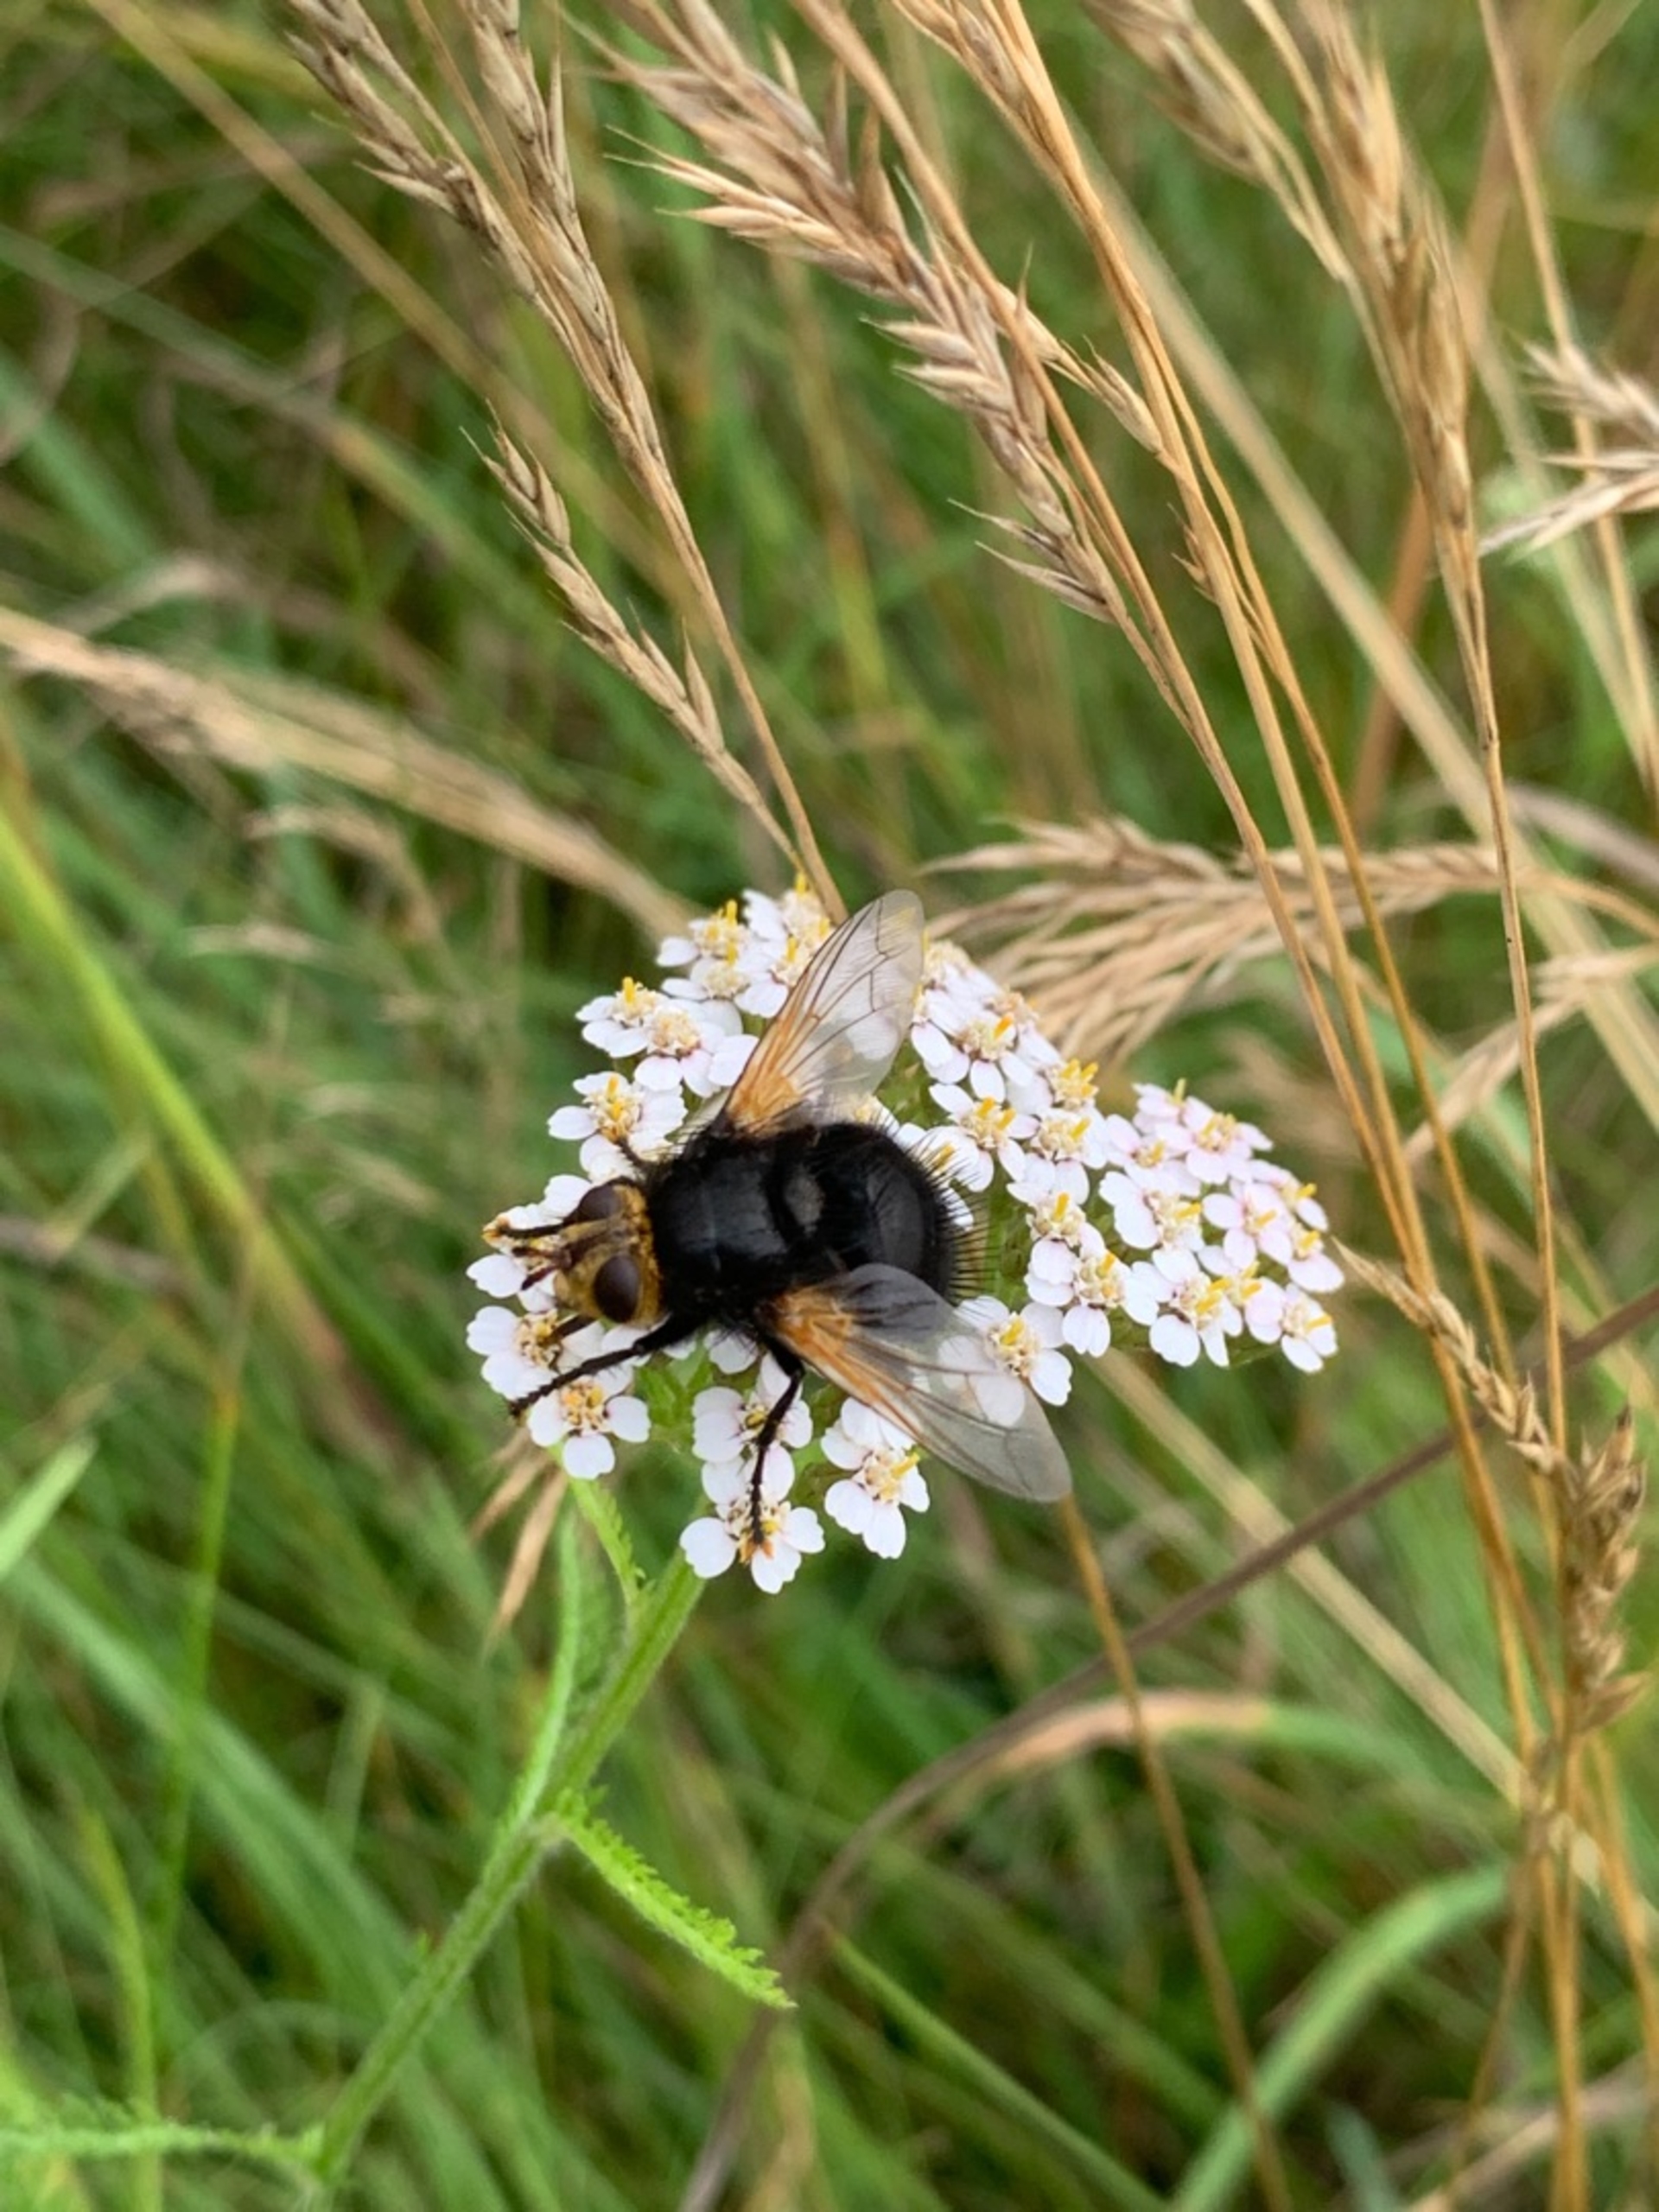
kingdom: Animalia
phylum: Arthropoda
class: Insecta
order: Diptera
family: Tachinidae
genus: Tachina
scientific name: Tachina grossa
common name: Kæmpefluen Harald
